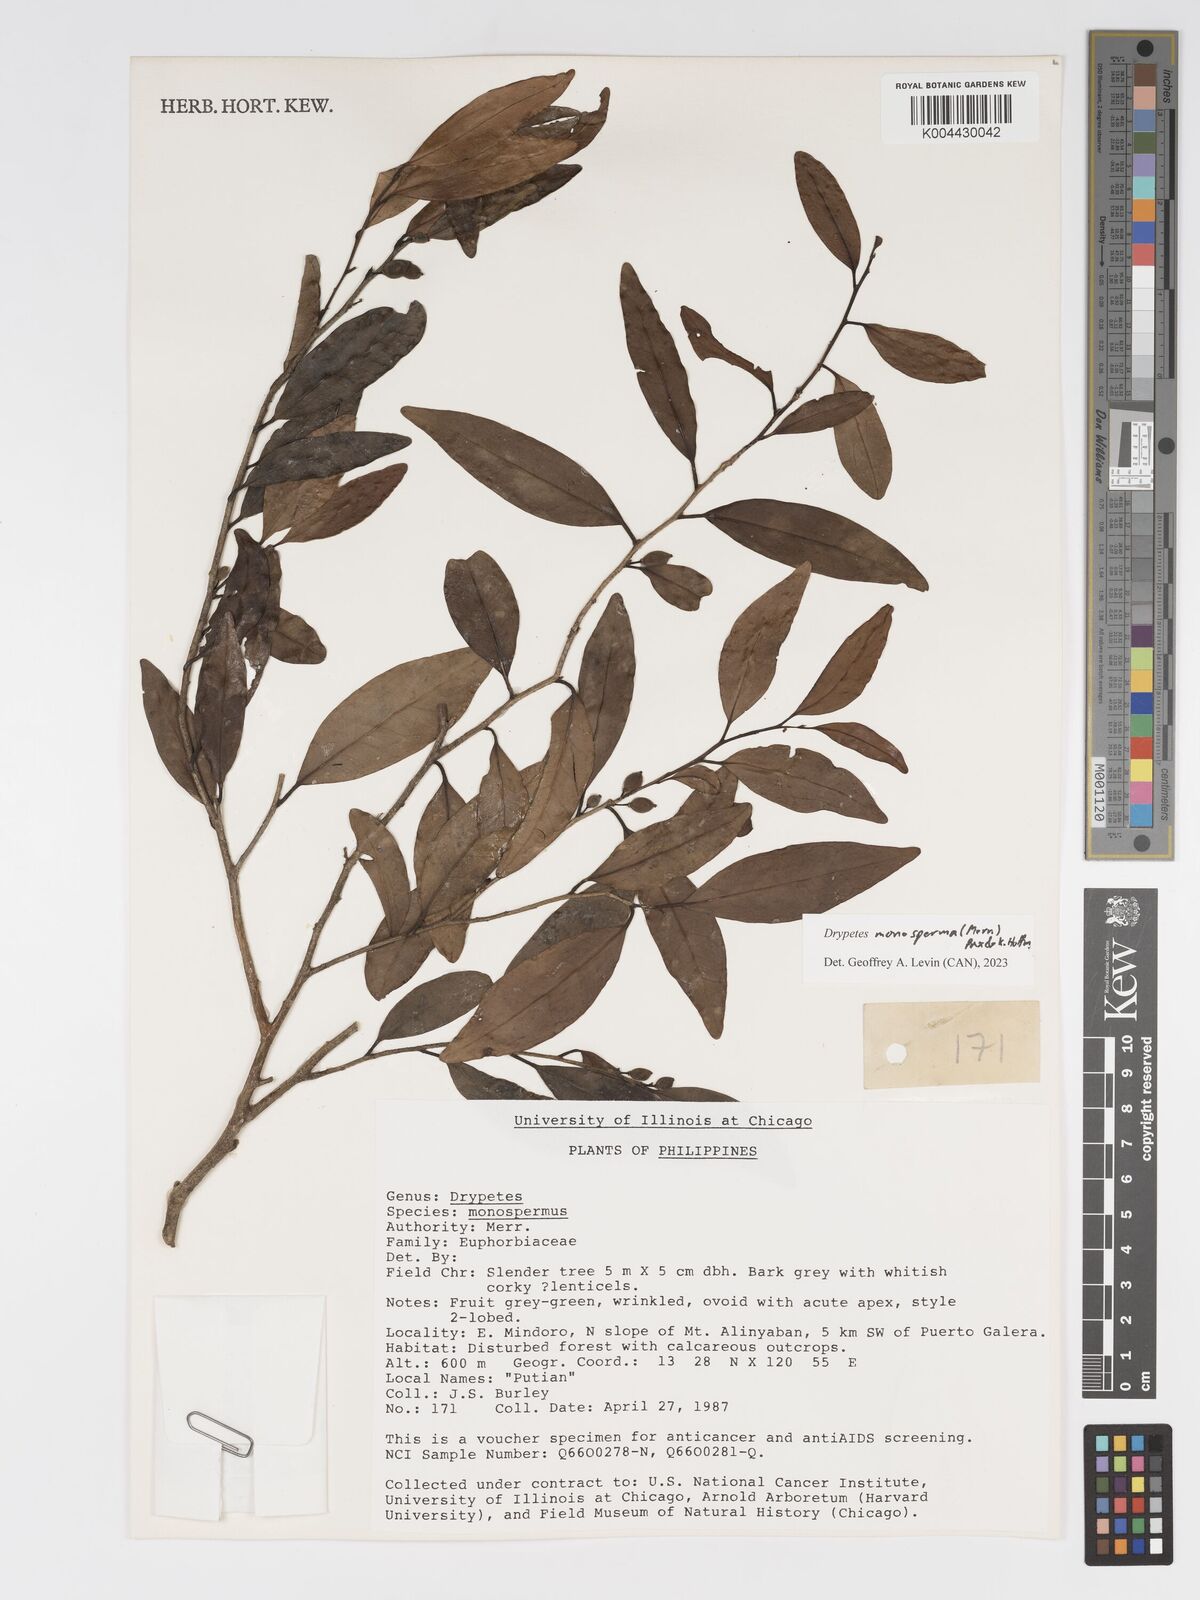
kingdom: Plantae
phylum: Tracheophyta
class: Magnoliopsida
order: Malpighiales
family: Putranjivaceae
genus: Drypetes
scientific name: Drypetes monosperma
